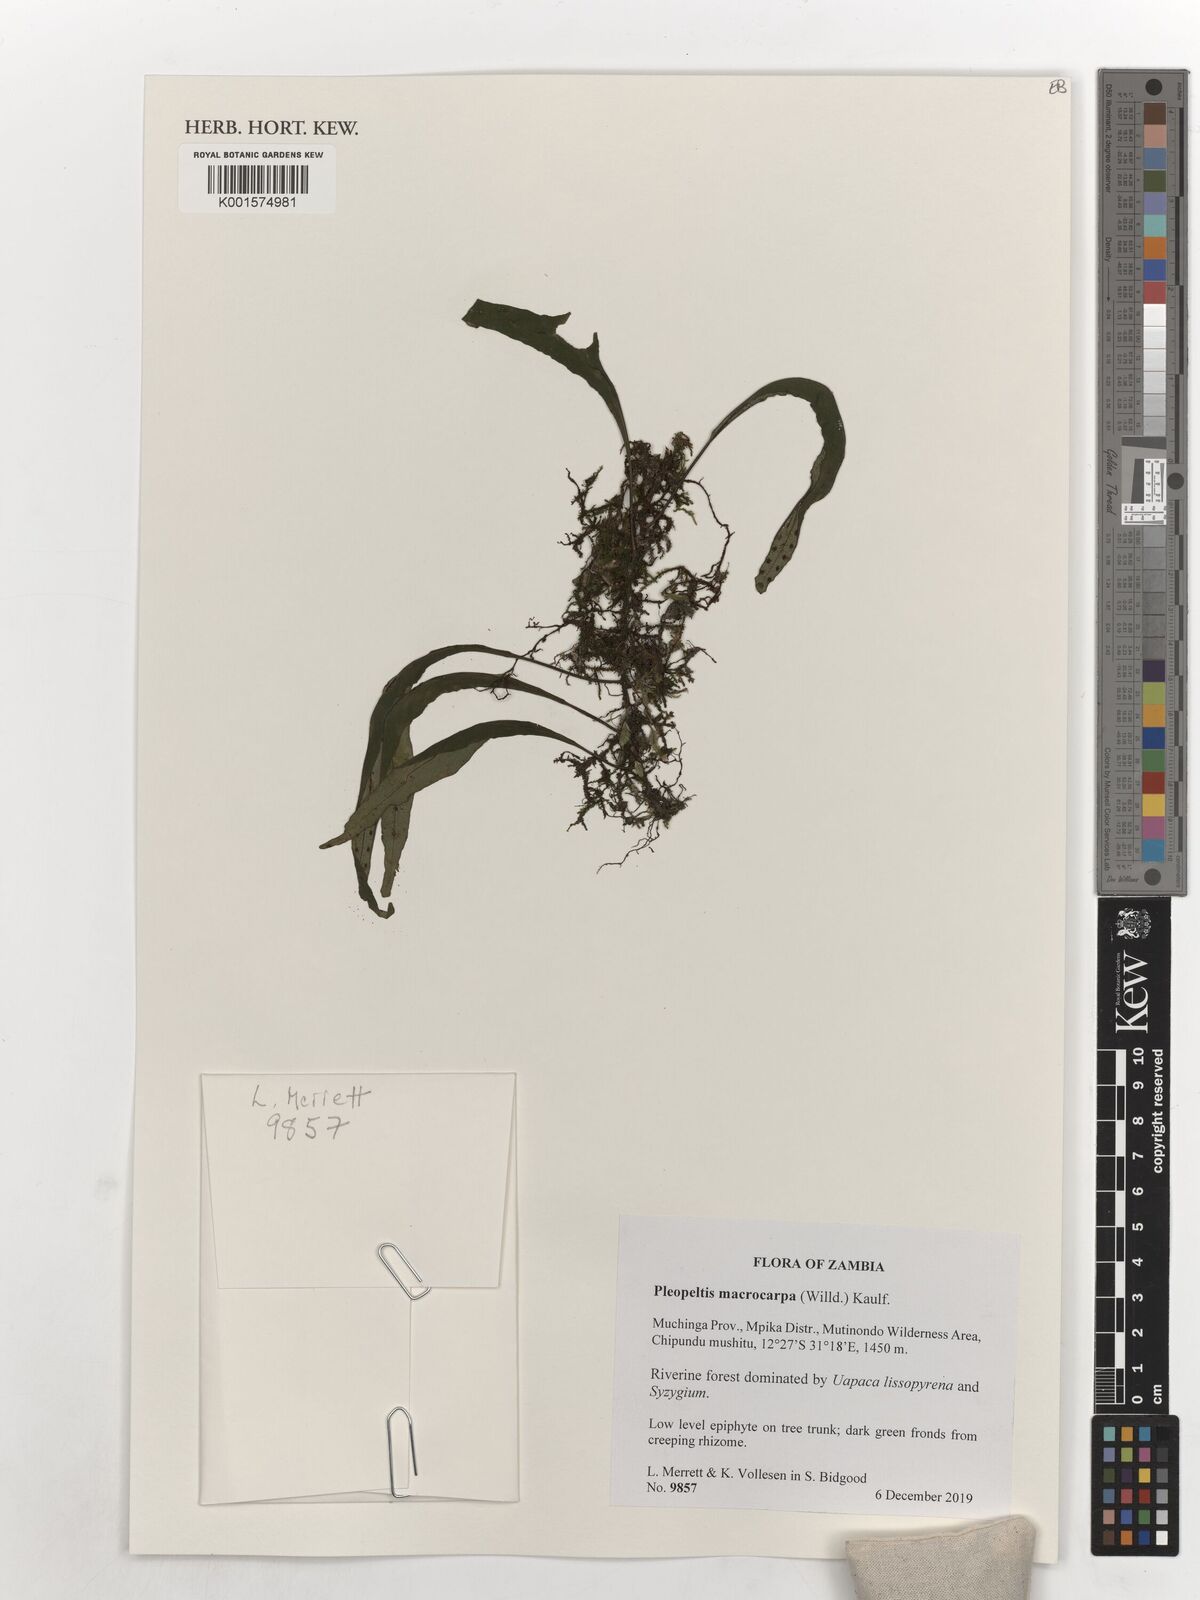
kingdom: Plantae
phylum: Tracheophyta
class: Polypodiopsida
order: Polypodiales
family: Polypodiaceae
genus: Pleopeltis
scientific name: Pleopeltis macrocarpa
